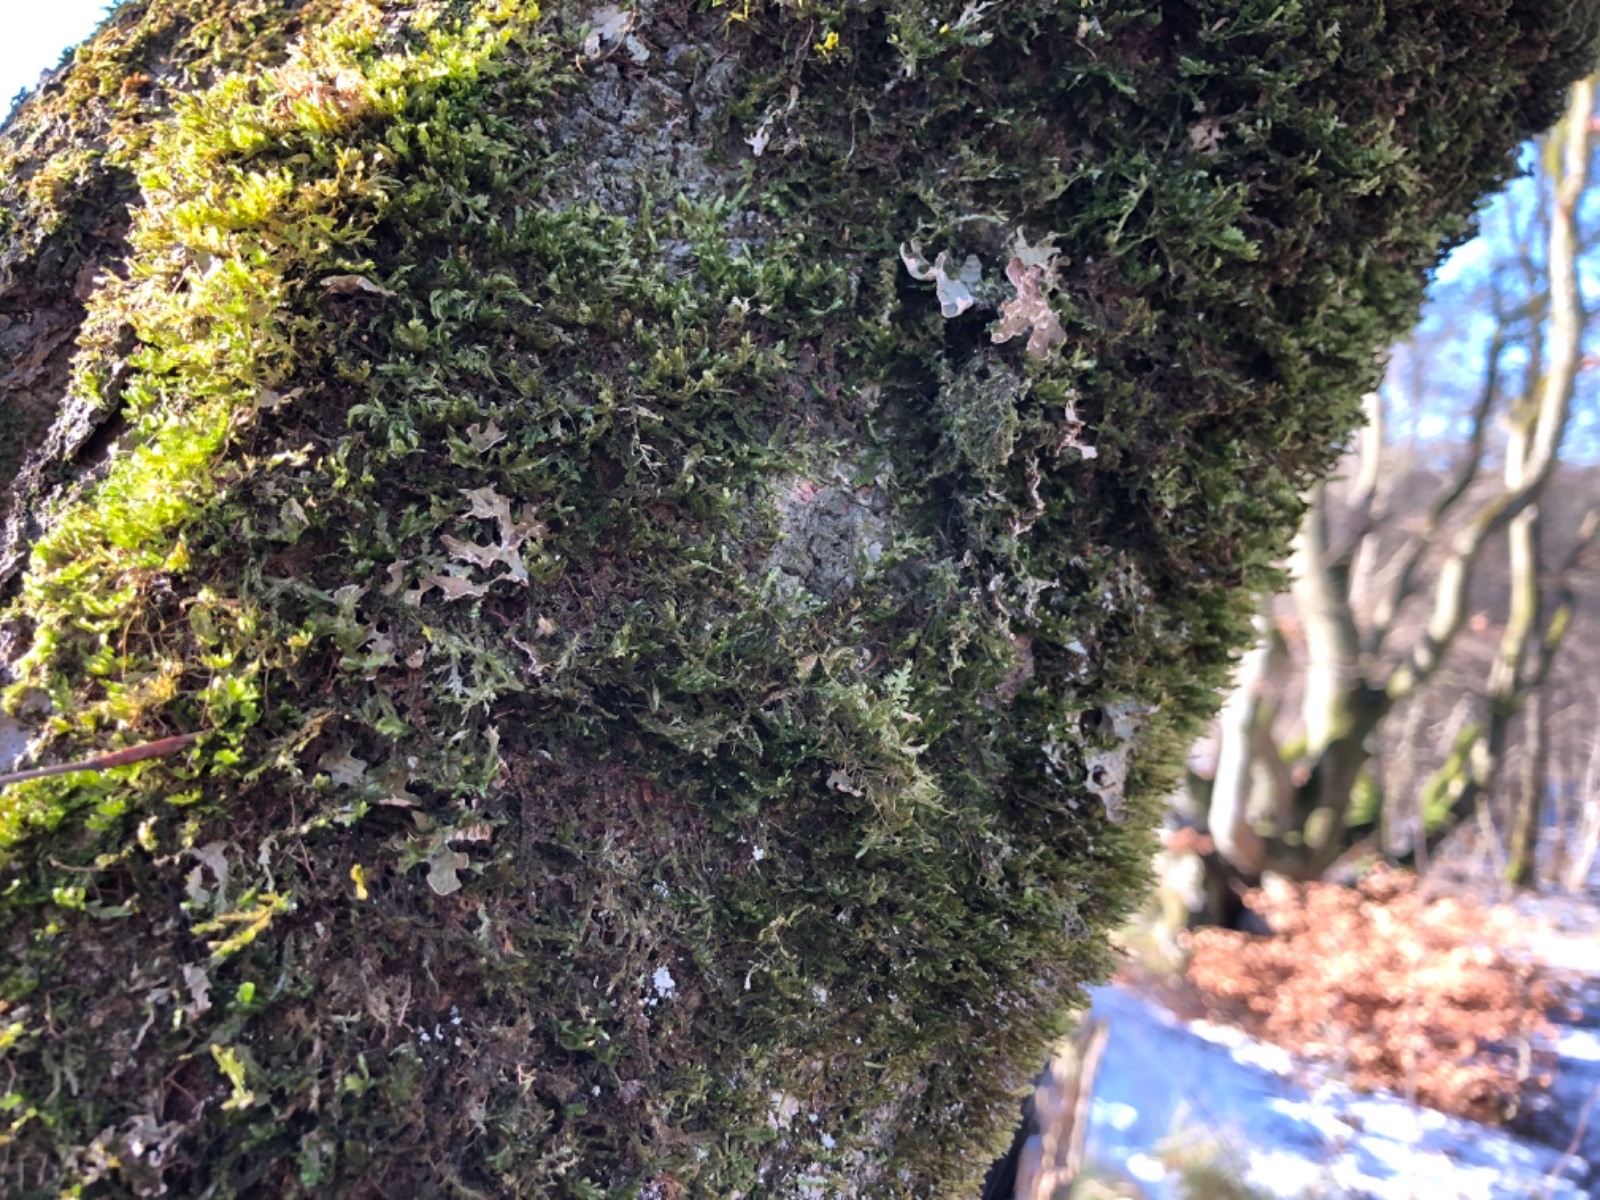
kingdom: Fungi
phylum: Ascomycota
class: Lecanoromycetes
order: Peltigerales
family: Lobariaceae
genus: Lobaria
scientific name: Lobaria pulmonaria
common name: almindelig lungelav
